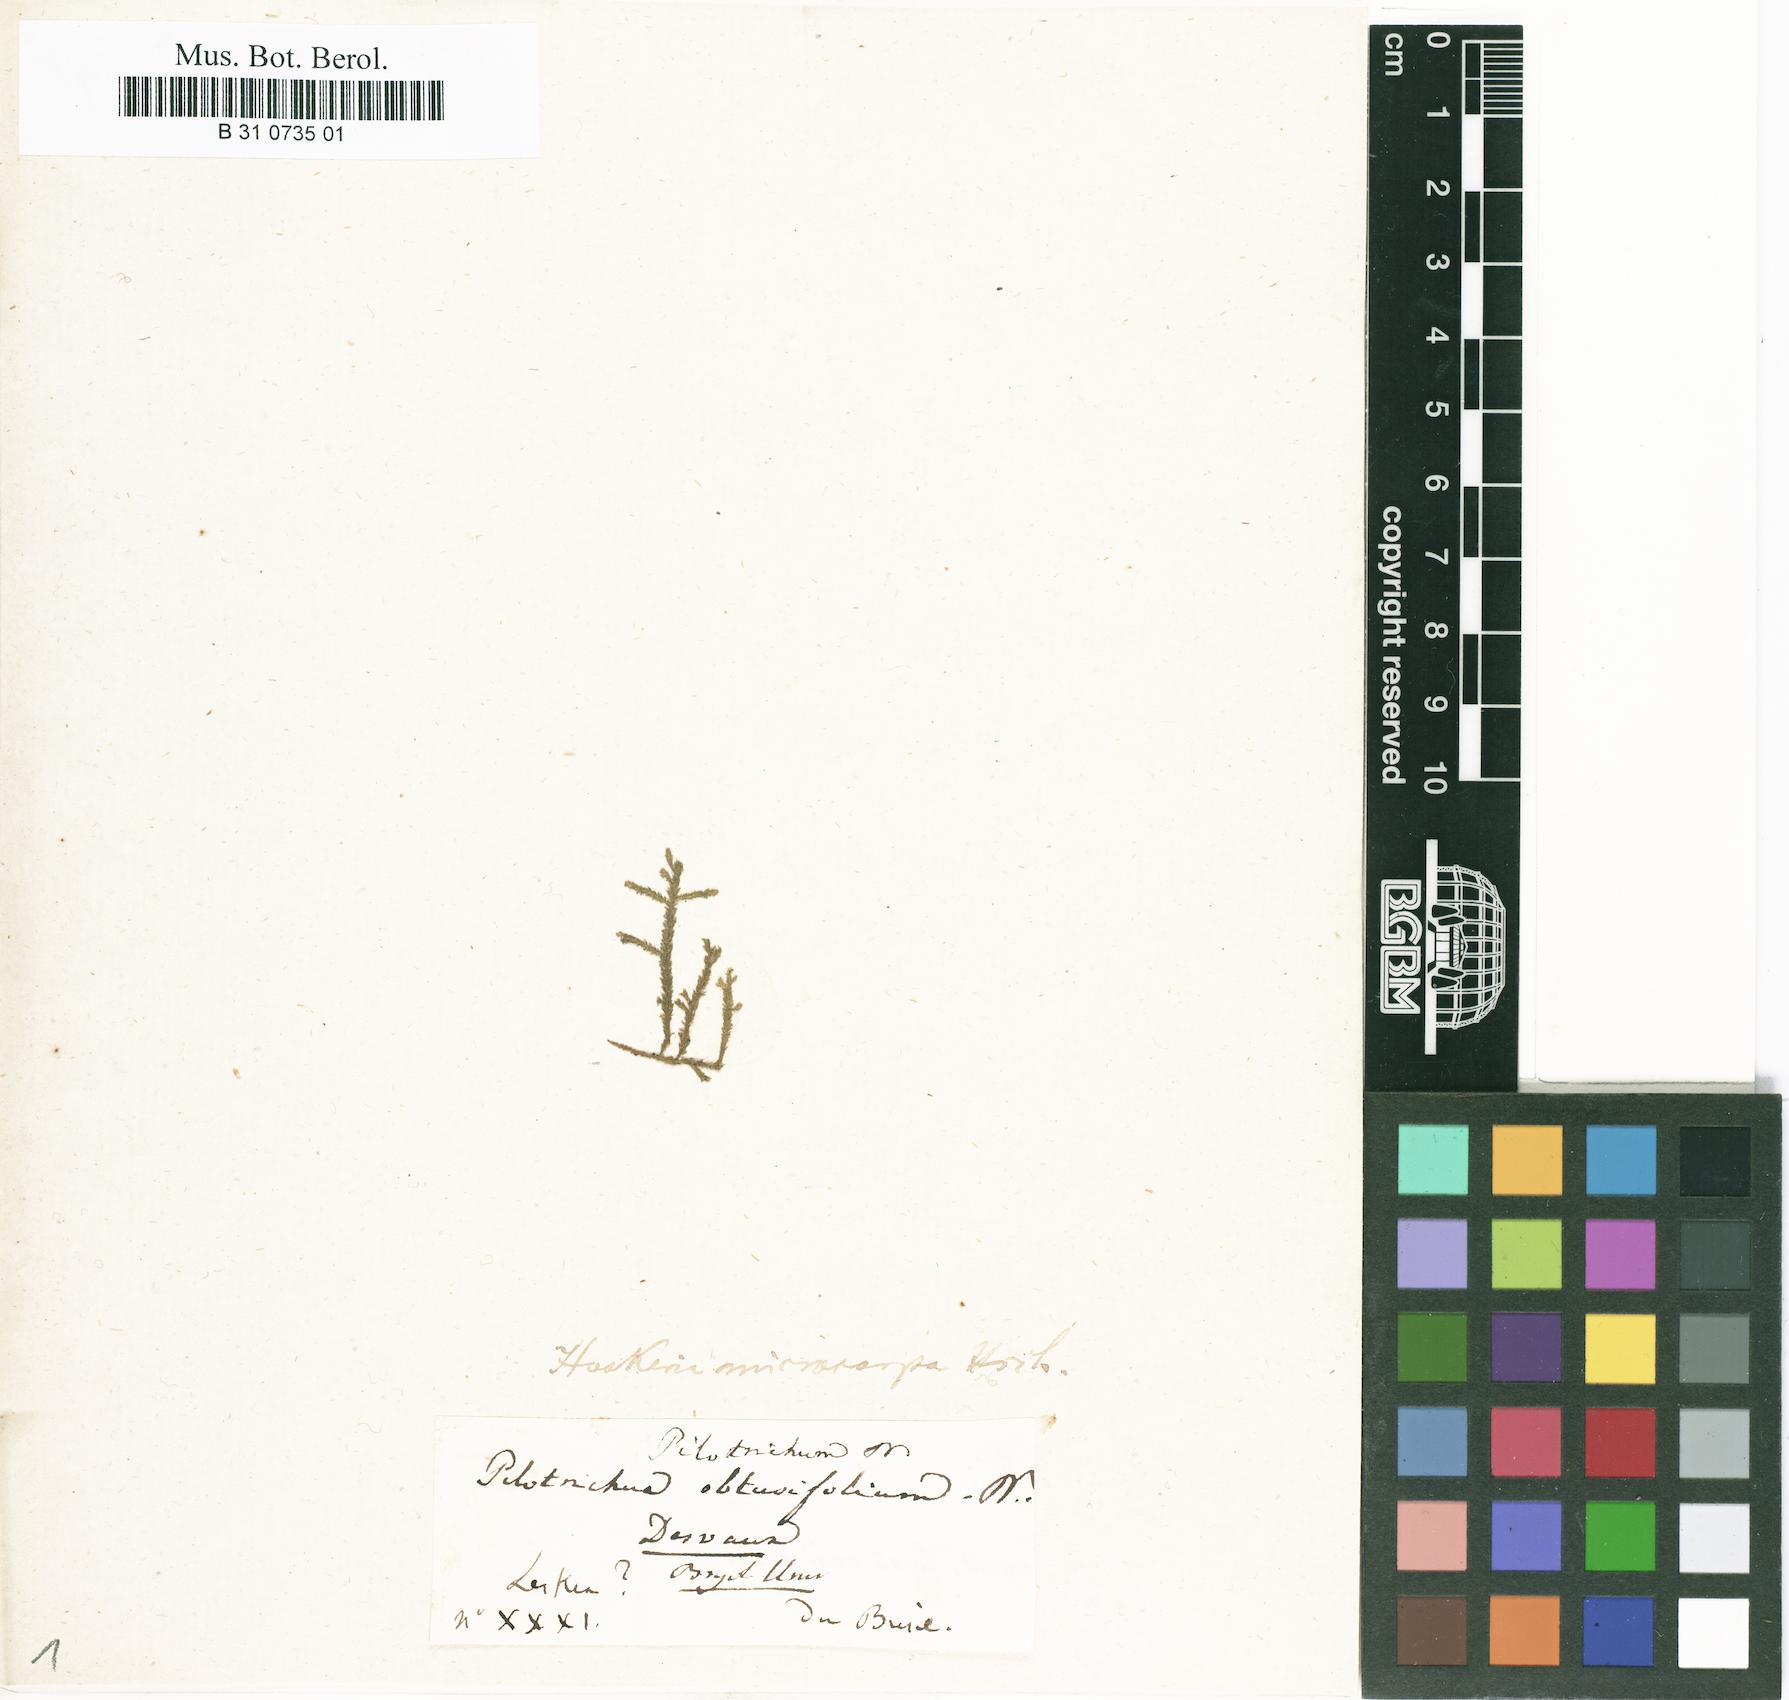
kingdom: Plantae
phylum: Bryophyta
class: Bryopsida
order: Hookeriales
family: Pilotrichaceae
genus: Thamniopsis
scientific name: Thamniopsis langsdorffii
